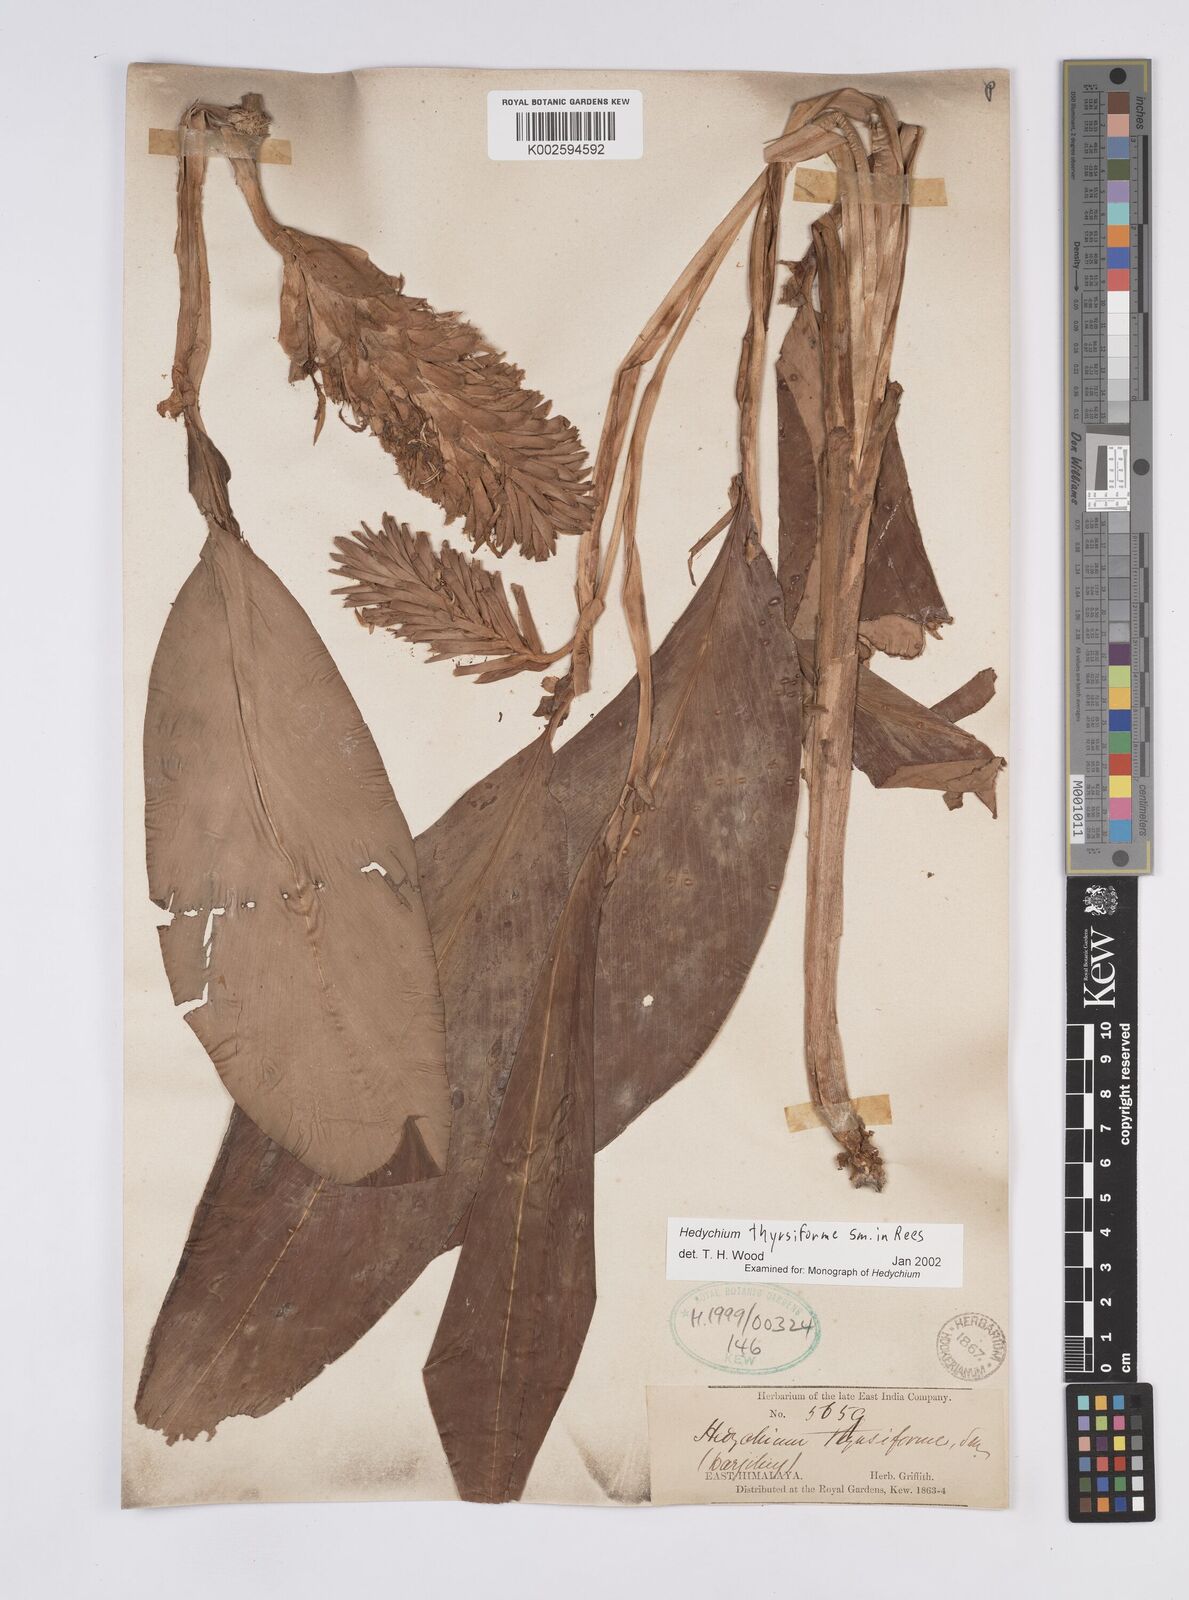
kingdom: Plantae
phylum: Tracheophyta
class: Liliopsida
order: Zingiberales
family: Zingiberaceae
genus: Hedychium
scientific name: Hedychium thyrsiforme
